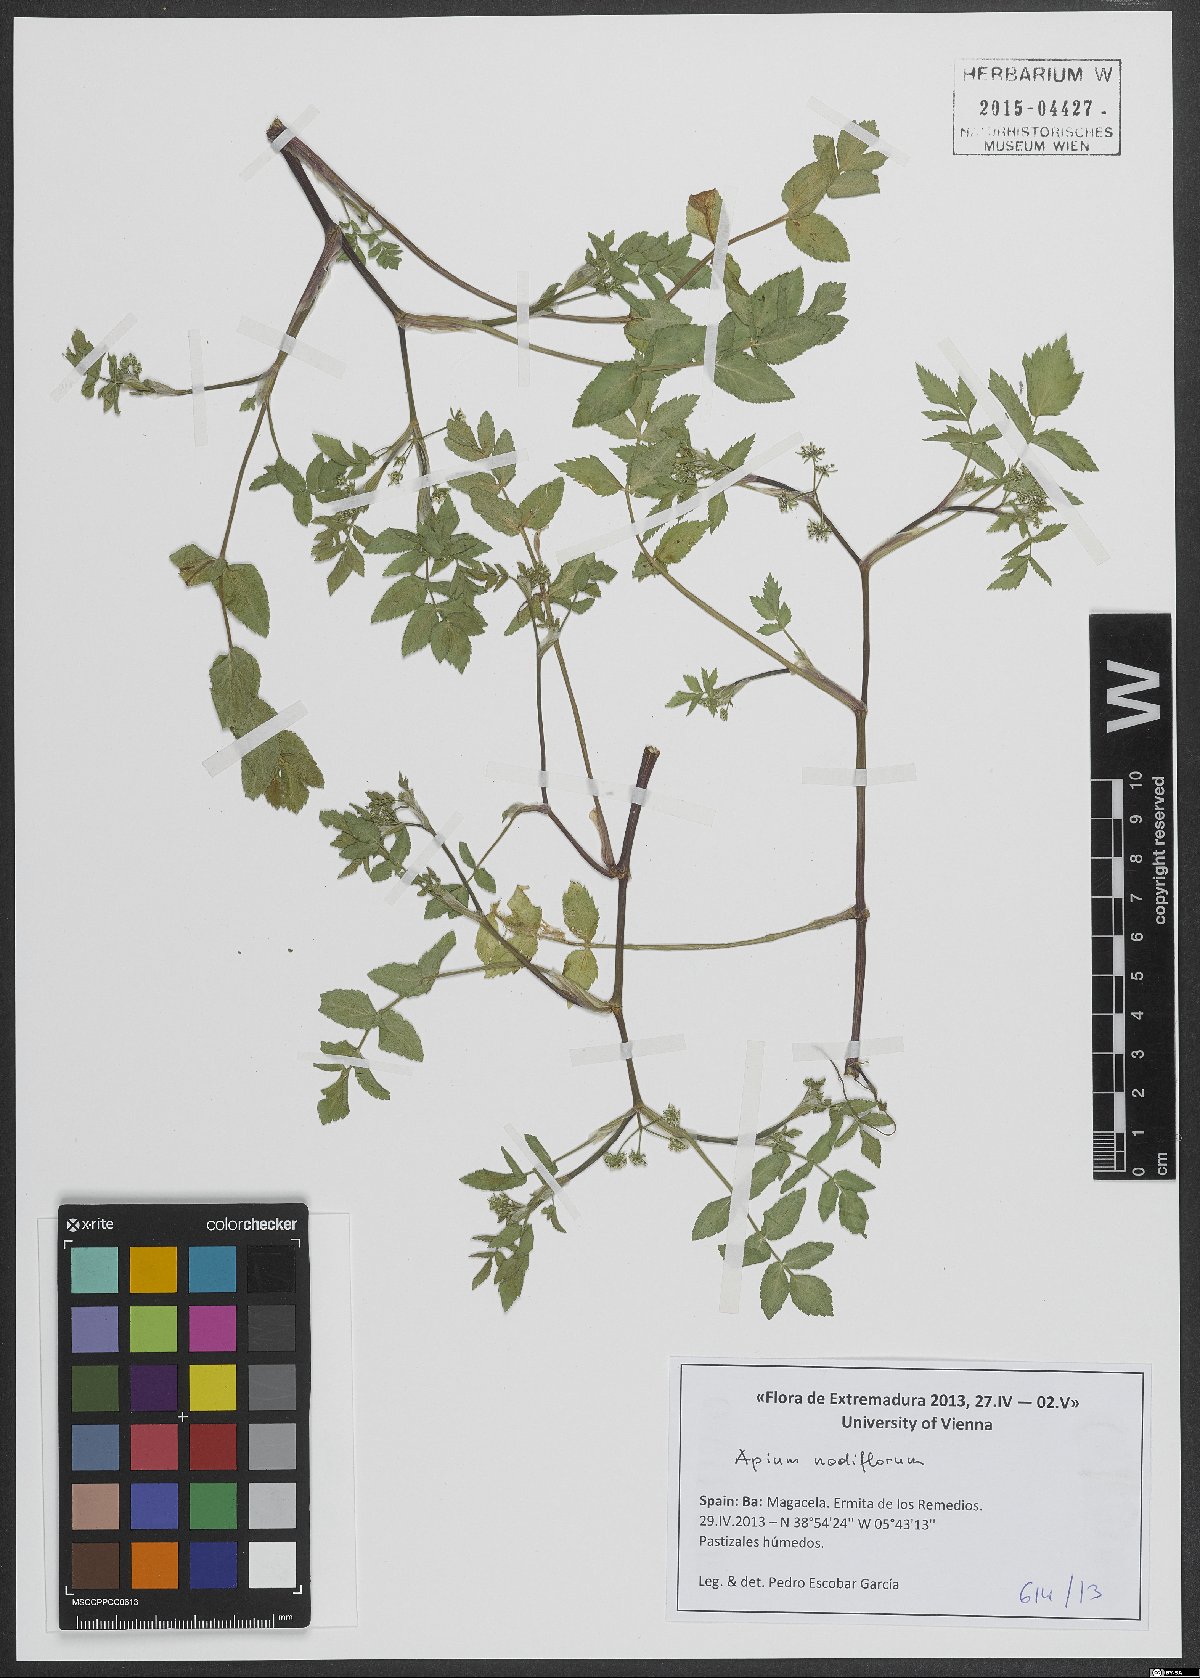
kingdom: Plantae
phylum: Tracheophyta
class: Magnoliopsida
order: Apiales
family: Apiaceae
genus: Helosciadium
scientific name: Helosciadium nodiflorum
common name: Fool's-watercress
